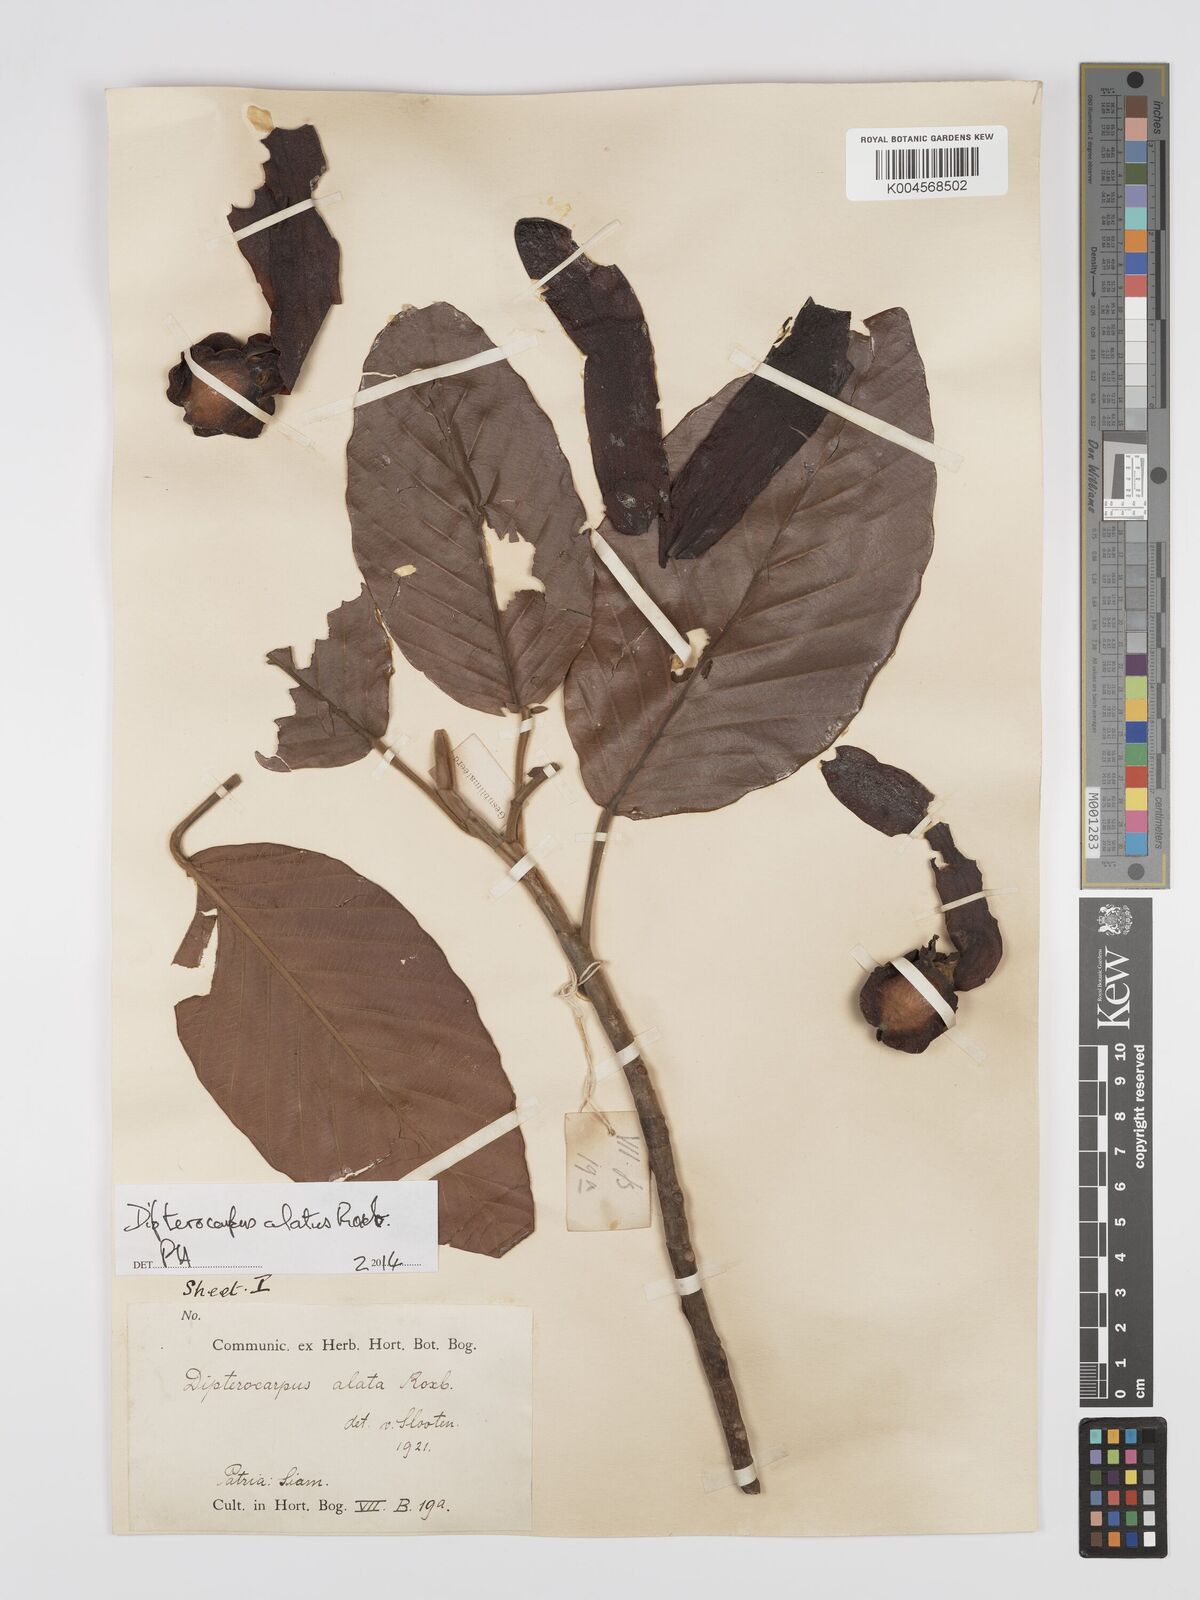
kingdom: Plantae
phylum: Tracheophyta
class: Magnoliopsida
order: Malvales
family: Dipterocarpaceae
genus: Dipterocarpus
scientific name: Dipterocarpus
